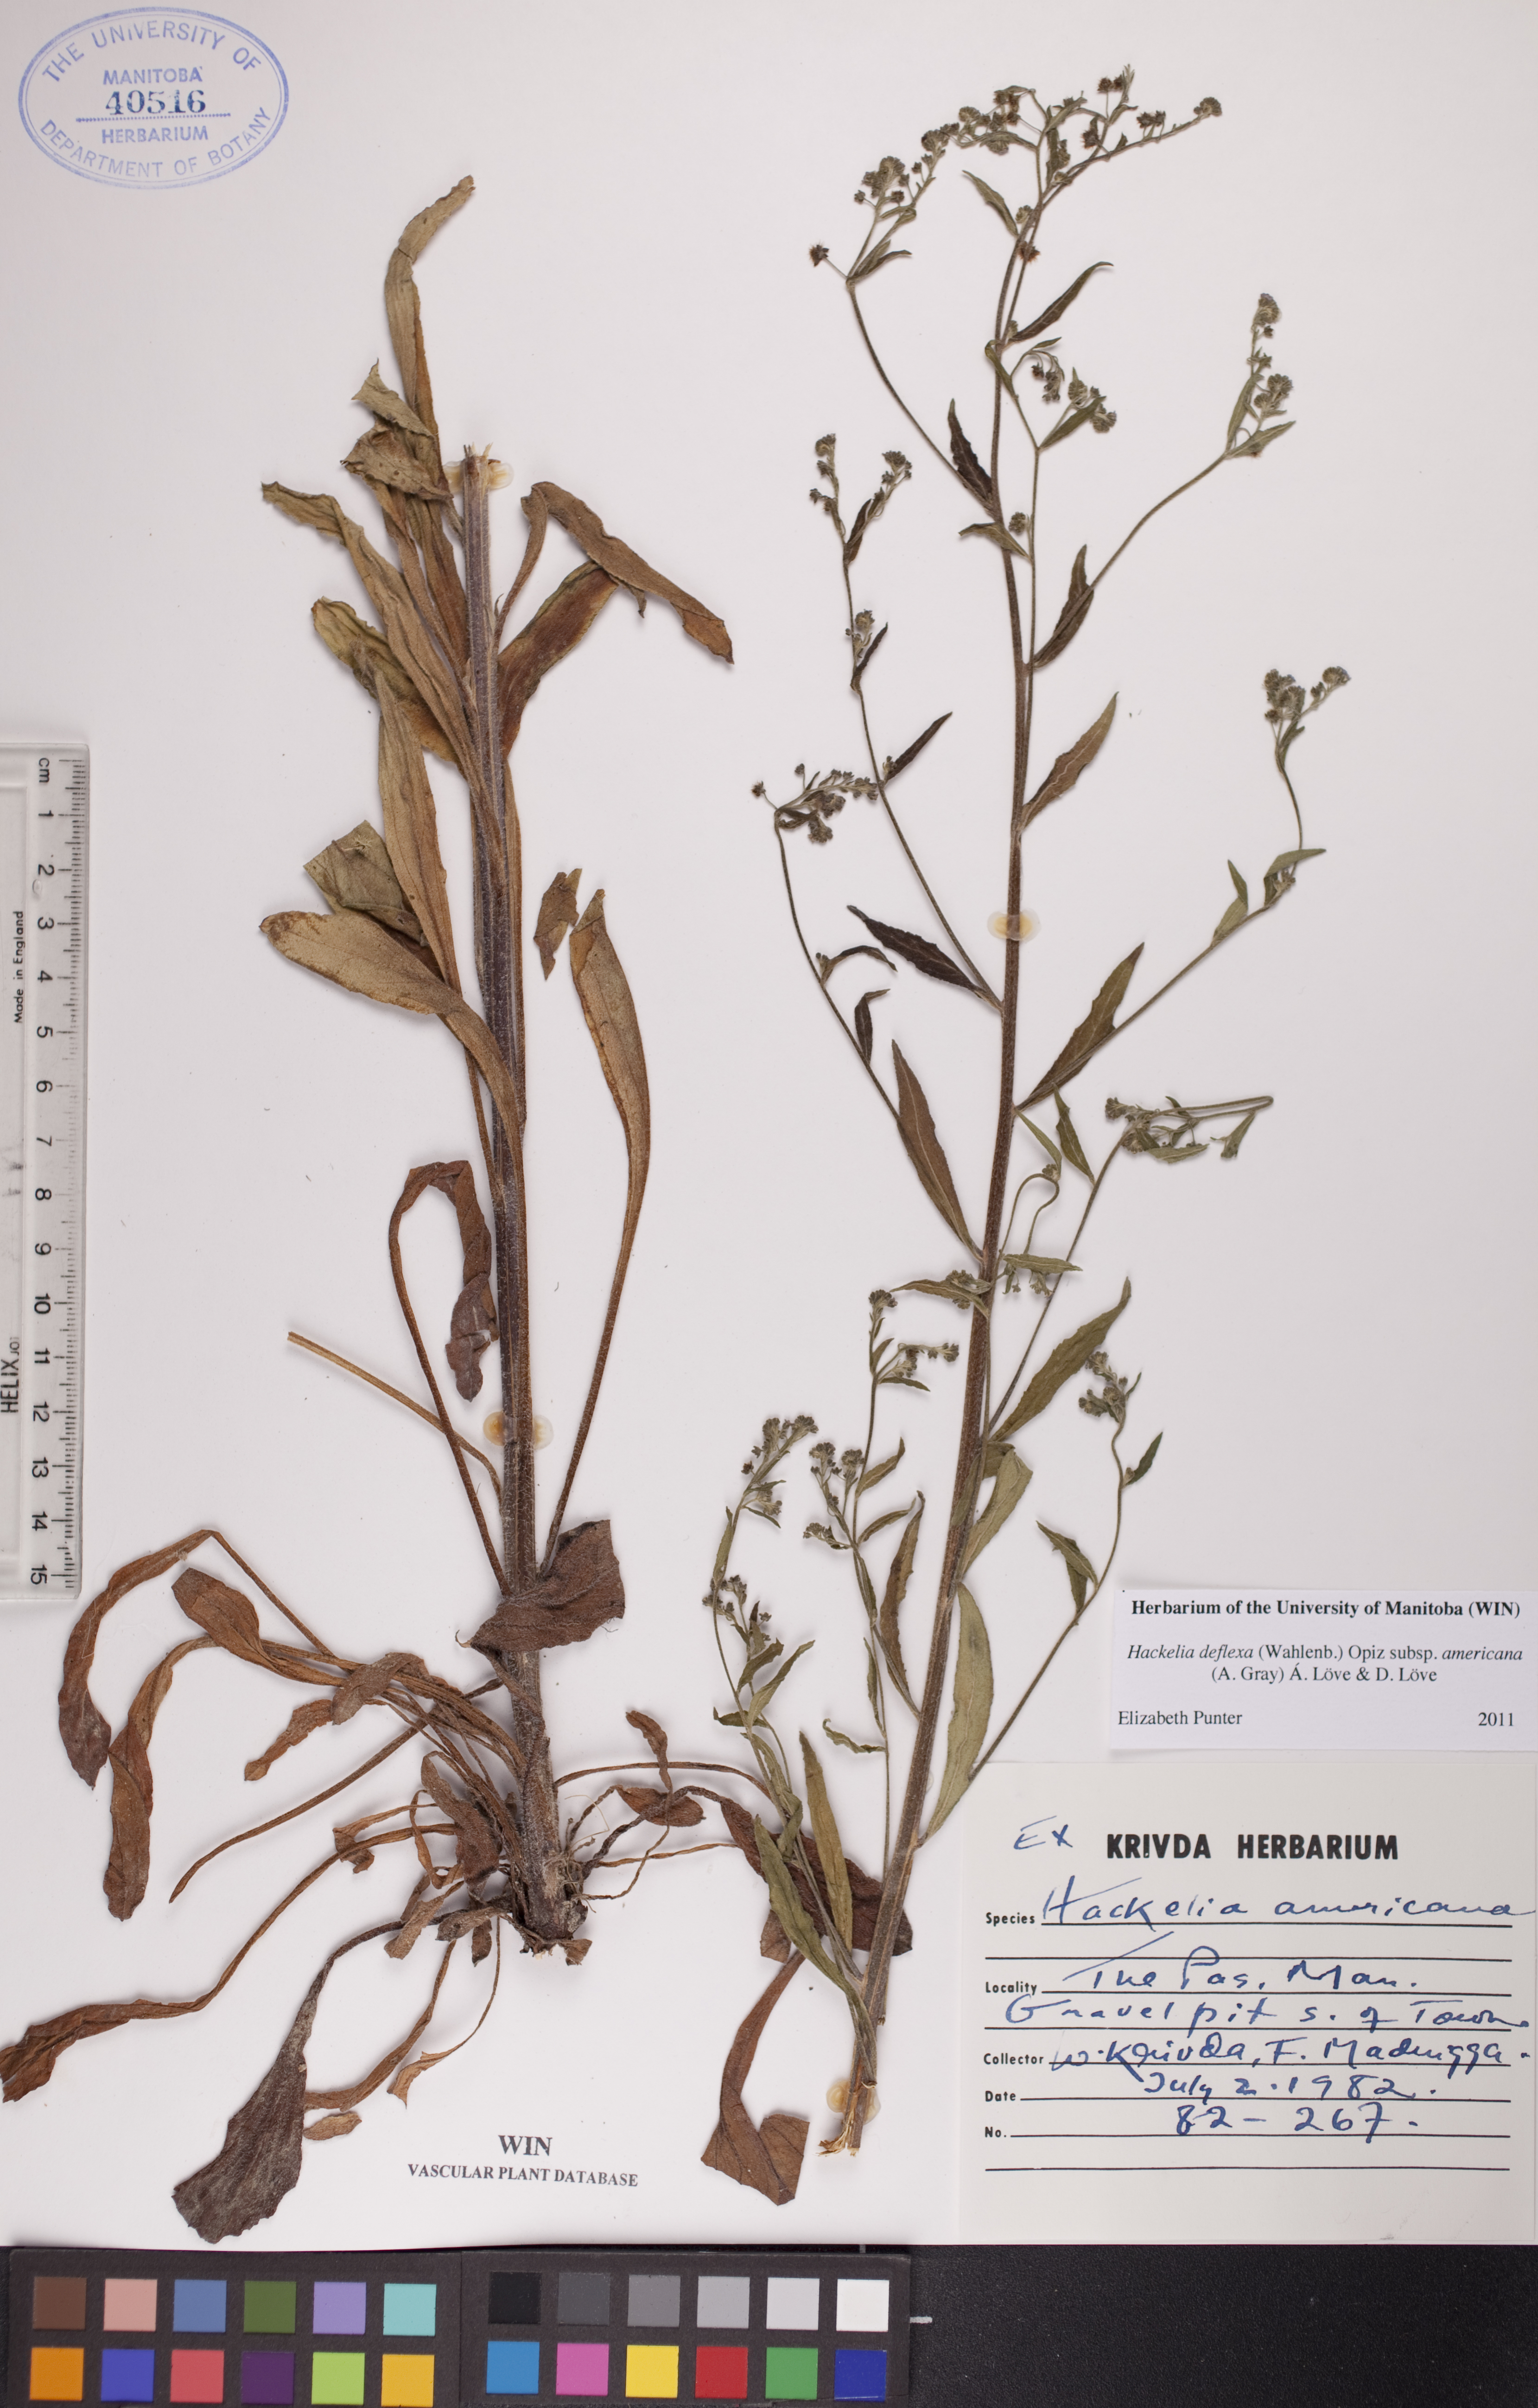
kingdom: Plantae
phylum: Tracheophyta
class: Magnoliopsida
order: Boraginales
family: Boraginaceae
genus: Hackelia
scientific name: Hackelia deflexa
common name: Nodding stickseed
